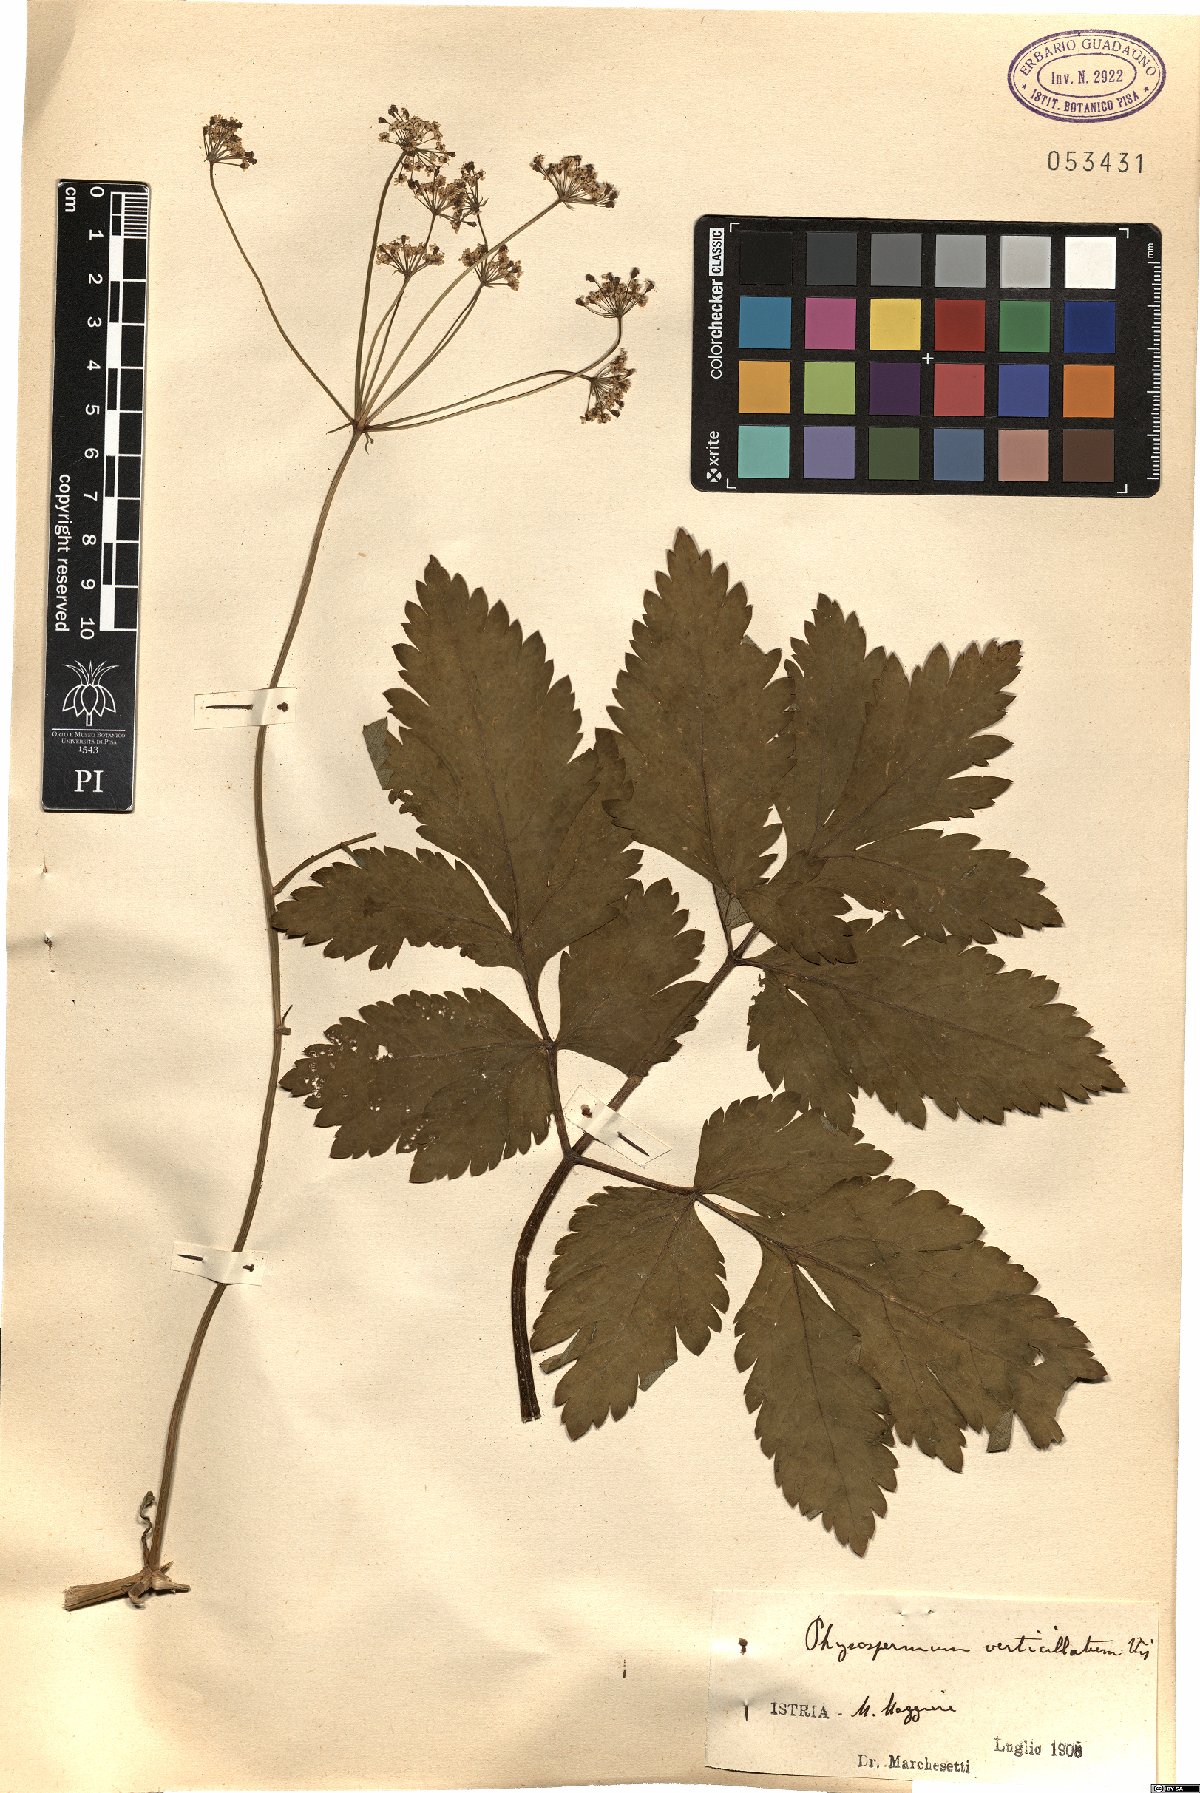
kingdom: Plantae
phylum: Tracheophyta
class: Magnoliopsida
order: Apiales
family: Apiaceae
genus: Physospermum
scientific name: Physospermum verticillatum
